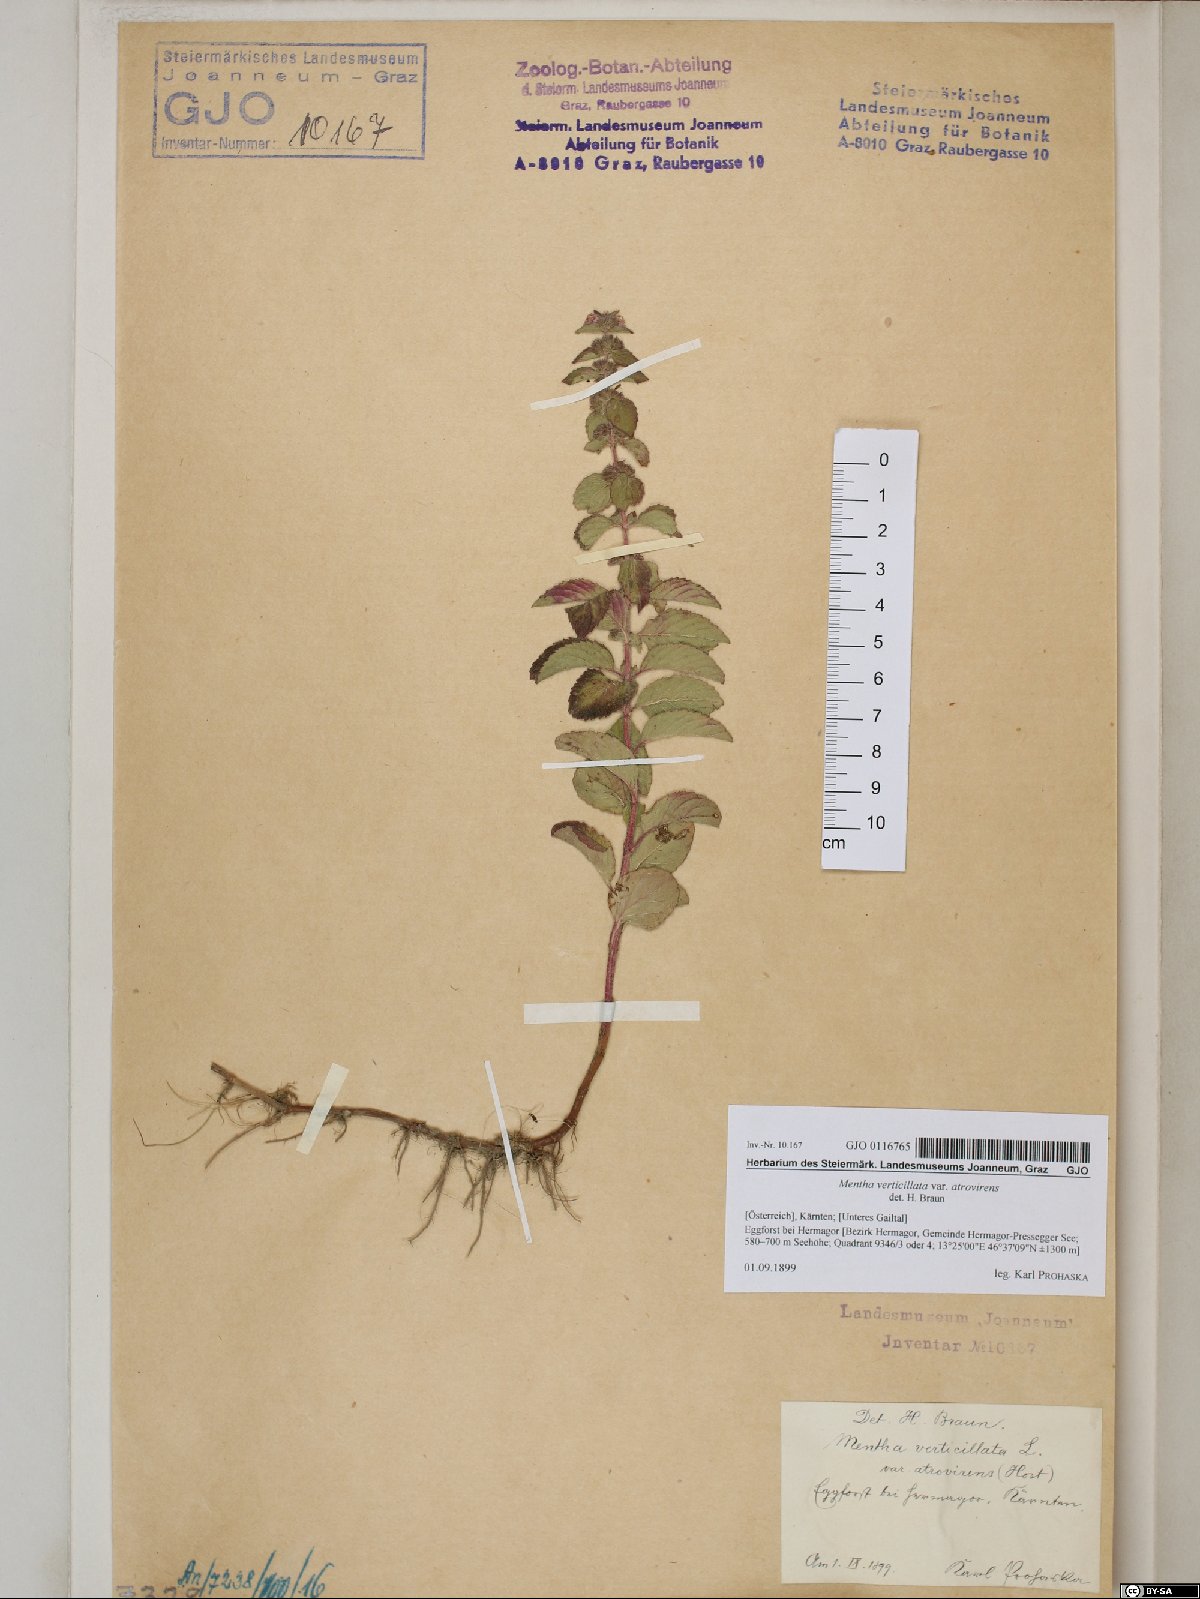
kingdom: Plantae
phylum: Tracheophyta
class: Magnoliopsida
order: Lamiales
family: Lamiaceae
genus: Mentha
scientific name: Mentha verticillata
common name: Mint
